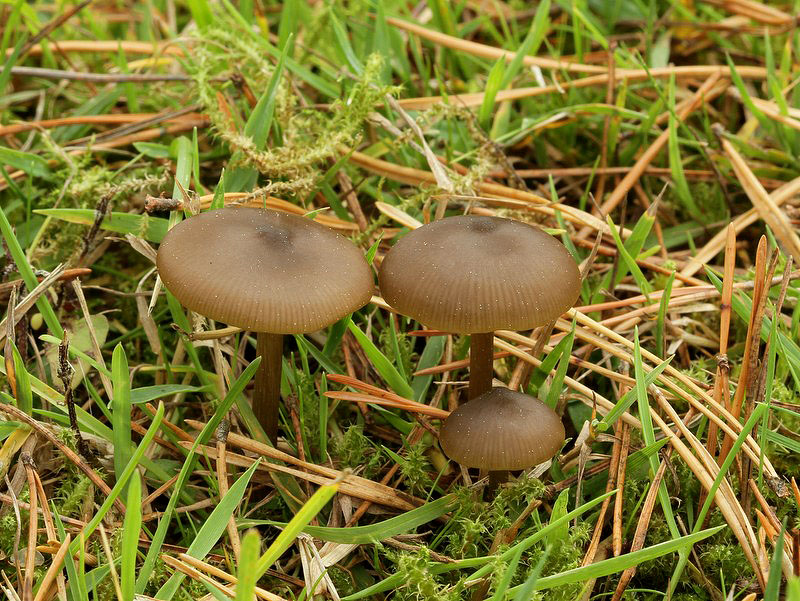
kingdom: Fungi
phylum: Basidiomycota
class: Agaricomycetes
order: Agaricales
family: Entolomataceae
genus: Entoloma
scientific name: Entoloma sericeum
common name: silkeglinsende rødblad
